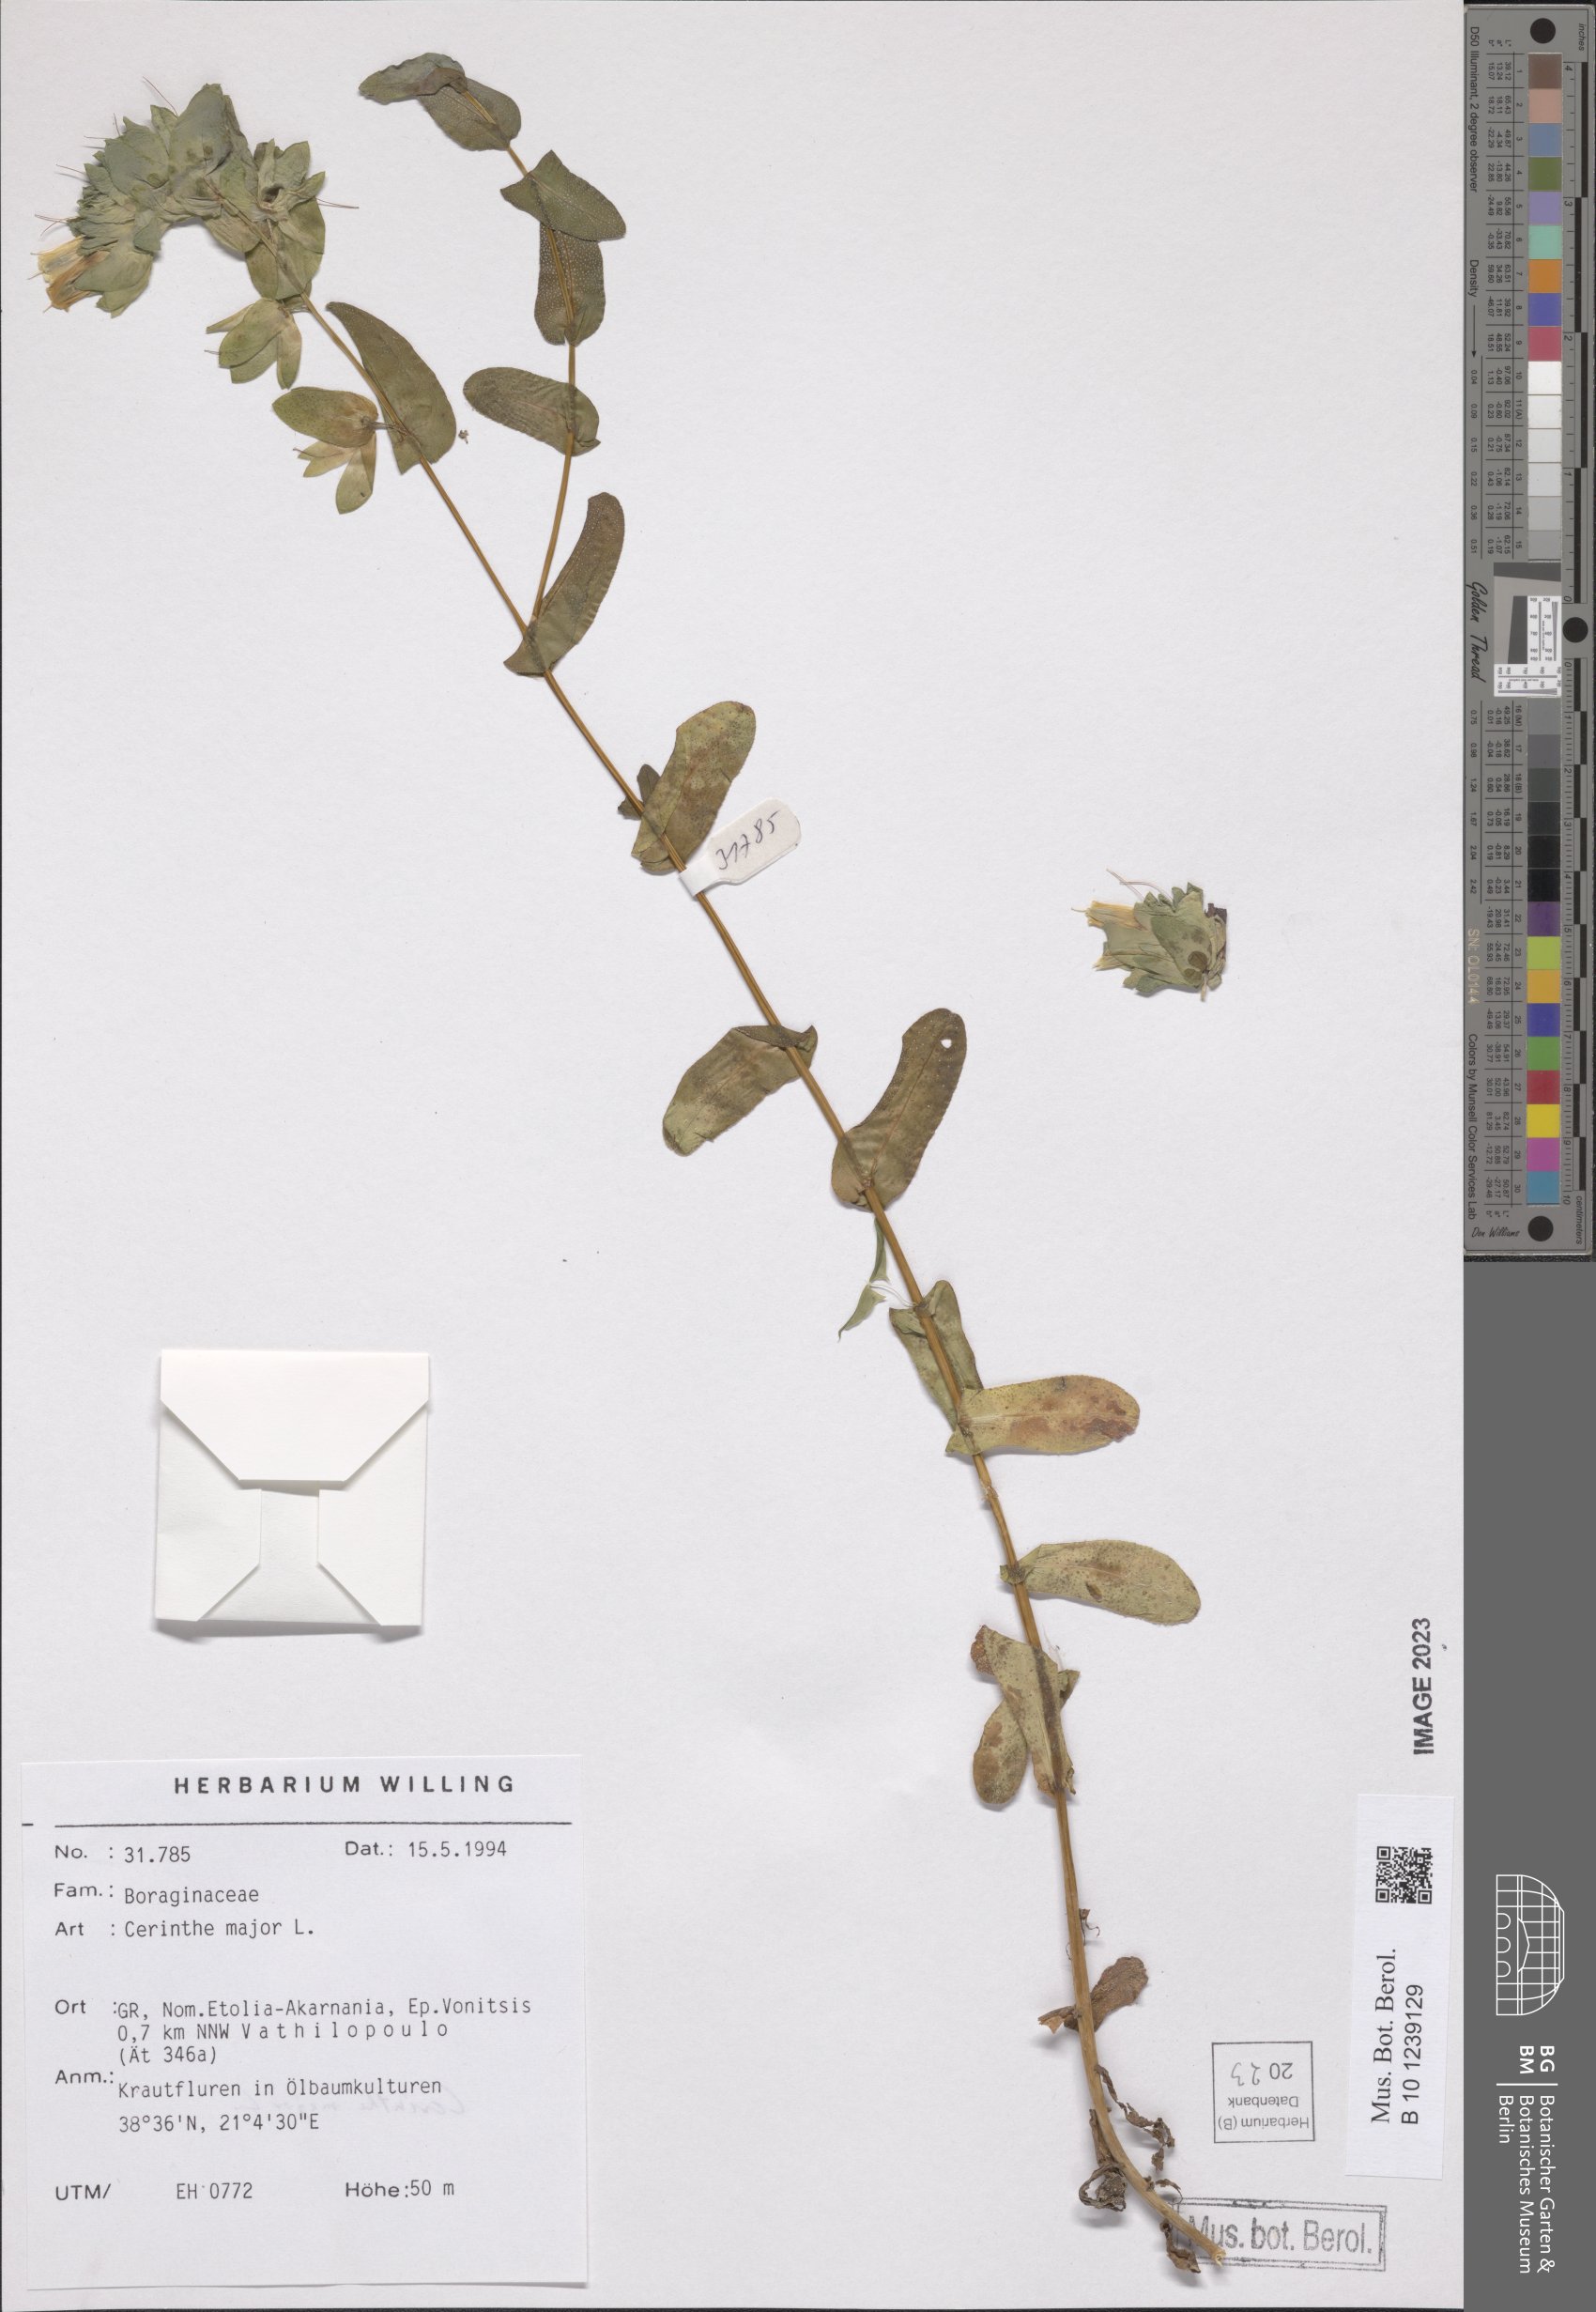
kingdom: Plantae
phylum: Tracheophyta
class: Magnoliopsida
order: Boraginales
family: Boraginaceae
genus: Cerinthe
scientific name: Cerinthe major
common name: Greater honeywort
